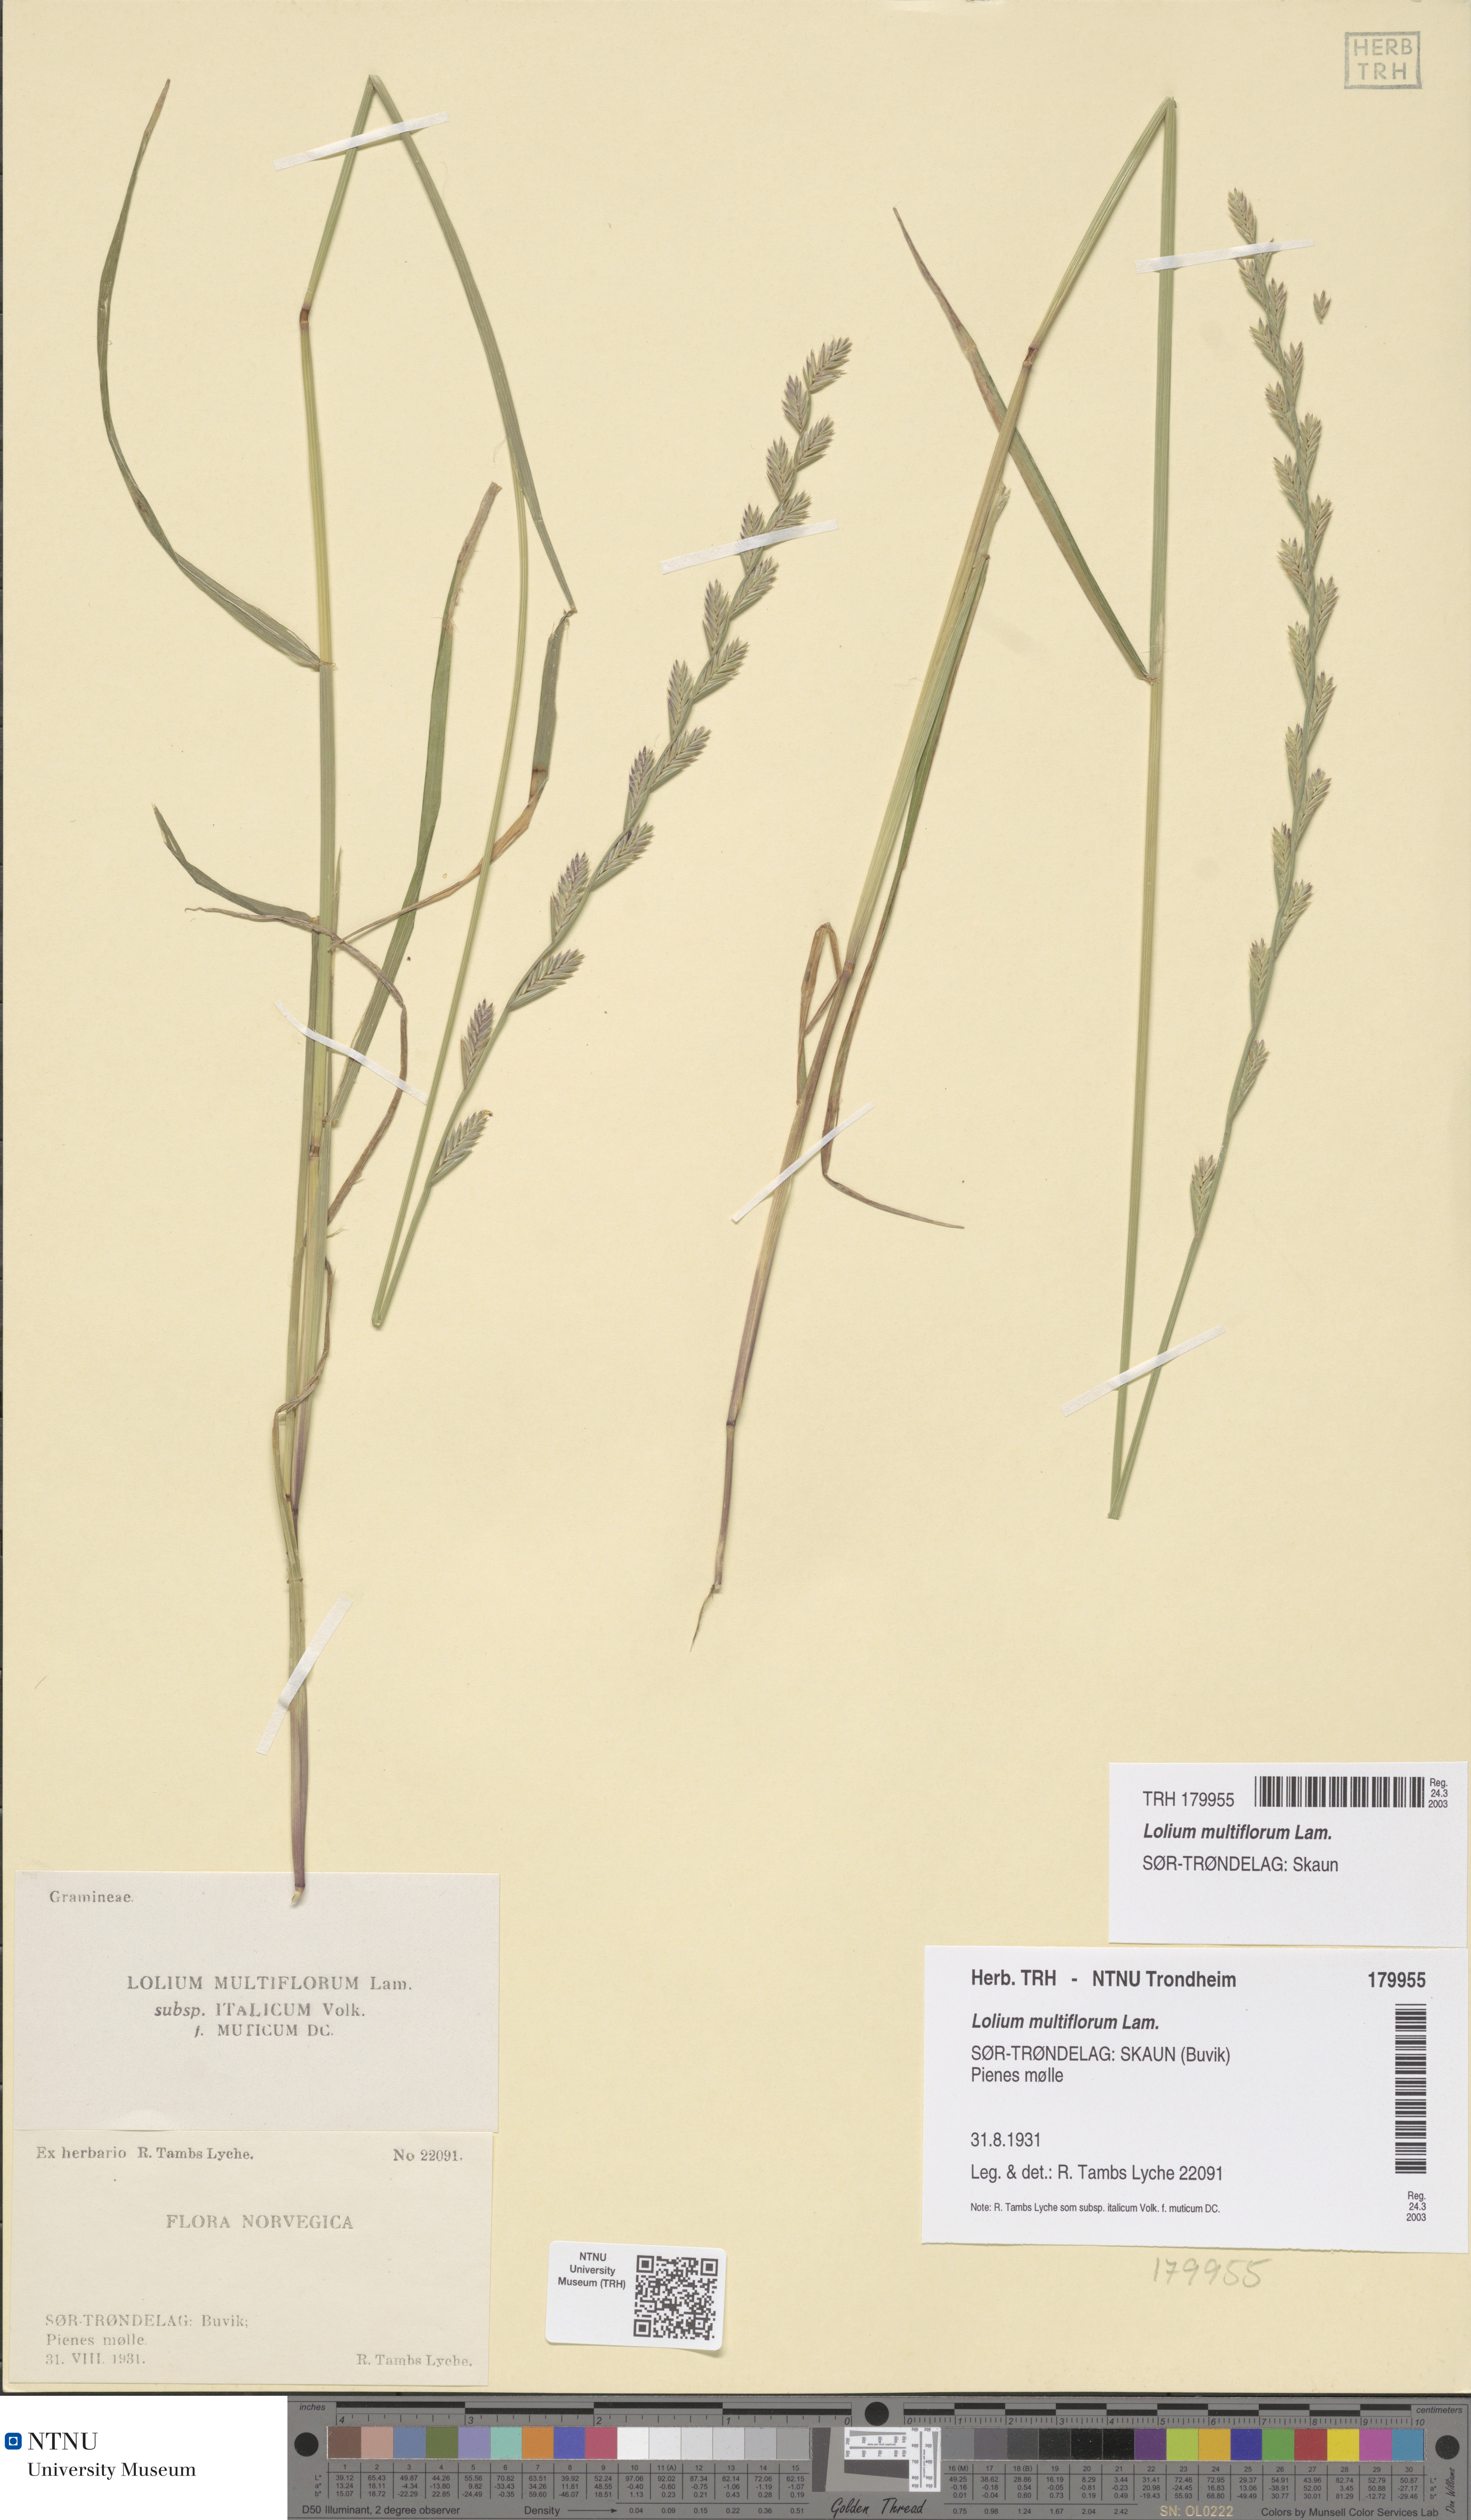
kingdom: Plantae
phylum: Tracheophyta
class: Liliopsida
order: Poales
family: Poaceae
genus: Lolium
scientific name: Lolium multiflorum
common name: Annual ryegrass
